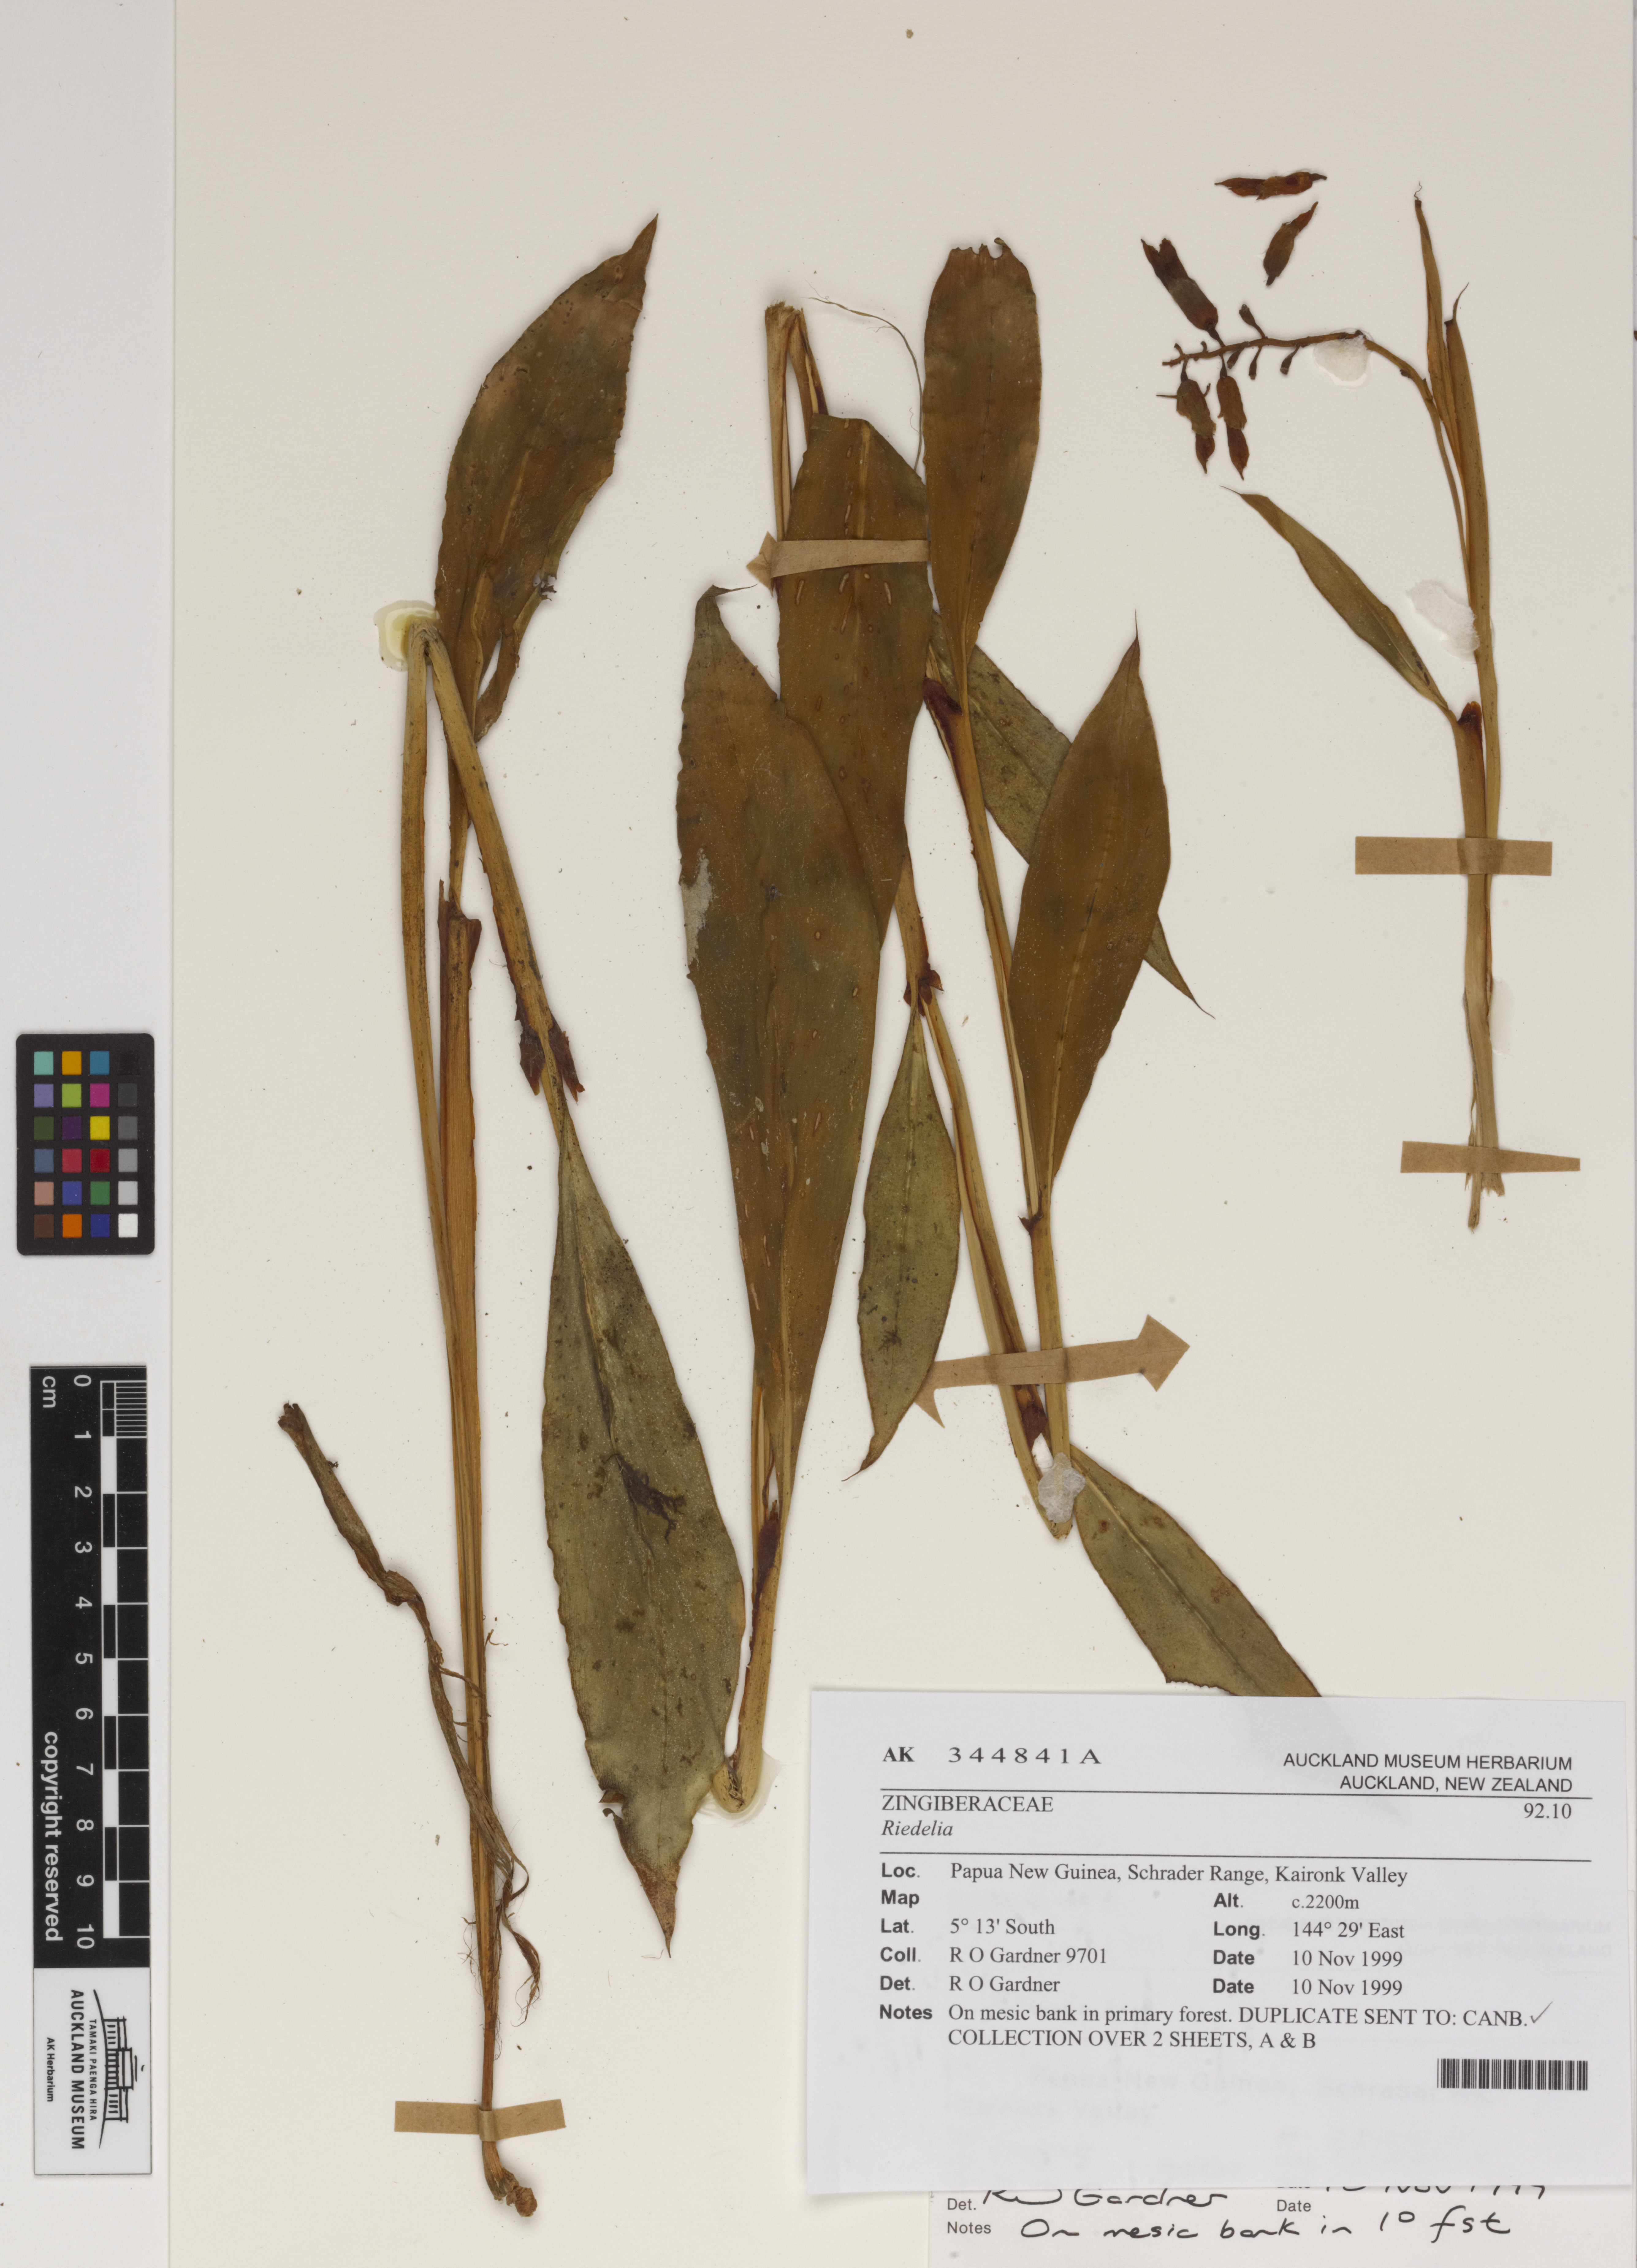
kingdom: Plantae
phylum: Tracheophyta
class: Liliopsida
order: Zingiberales
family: Zingiberaceae
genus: Riedelia
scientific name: Riedelia
